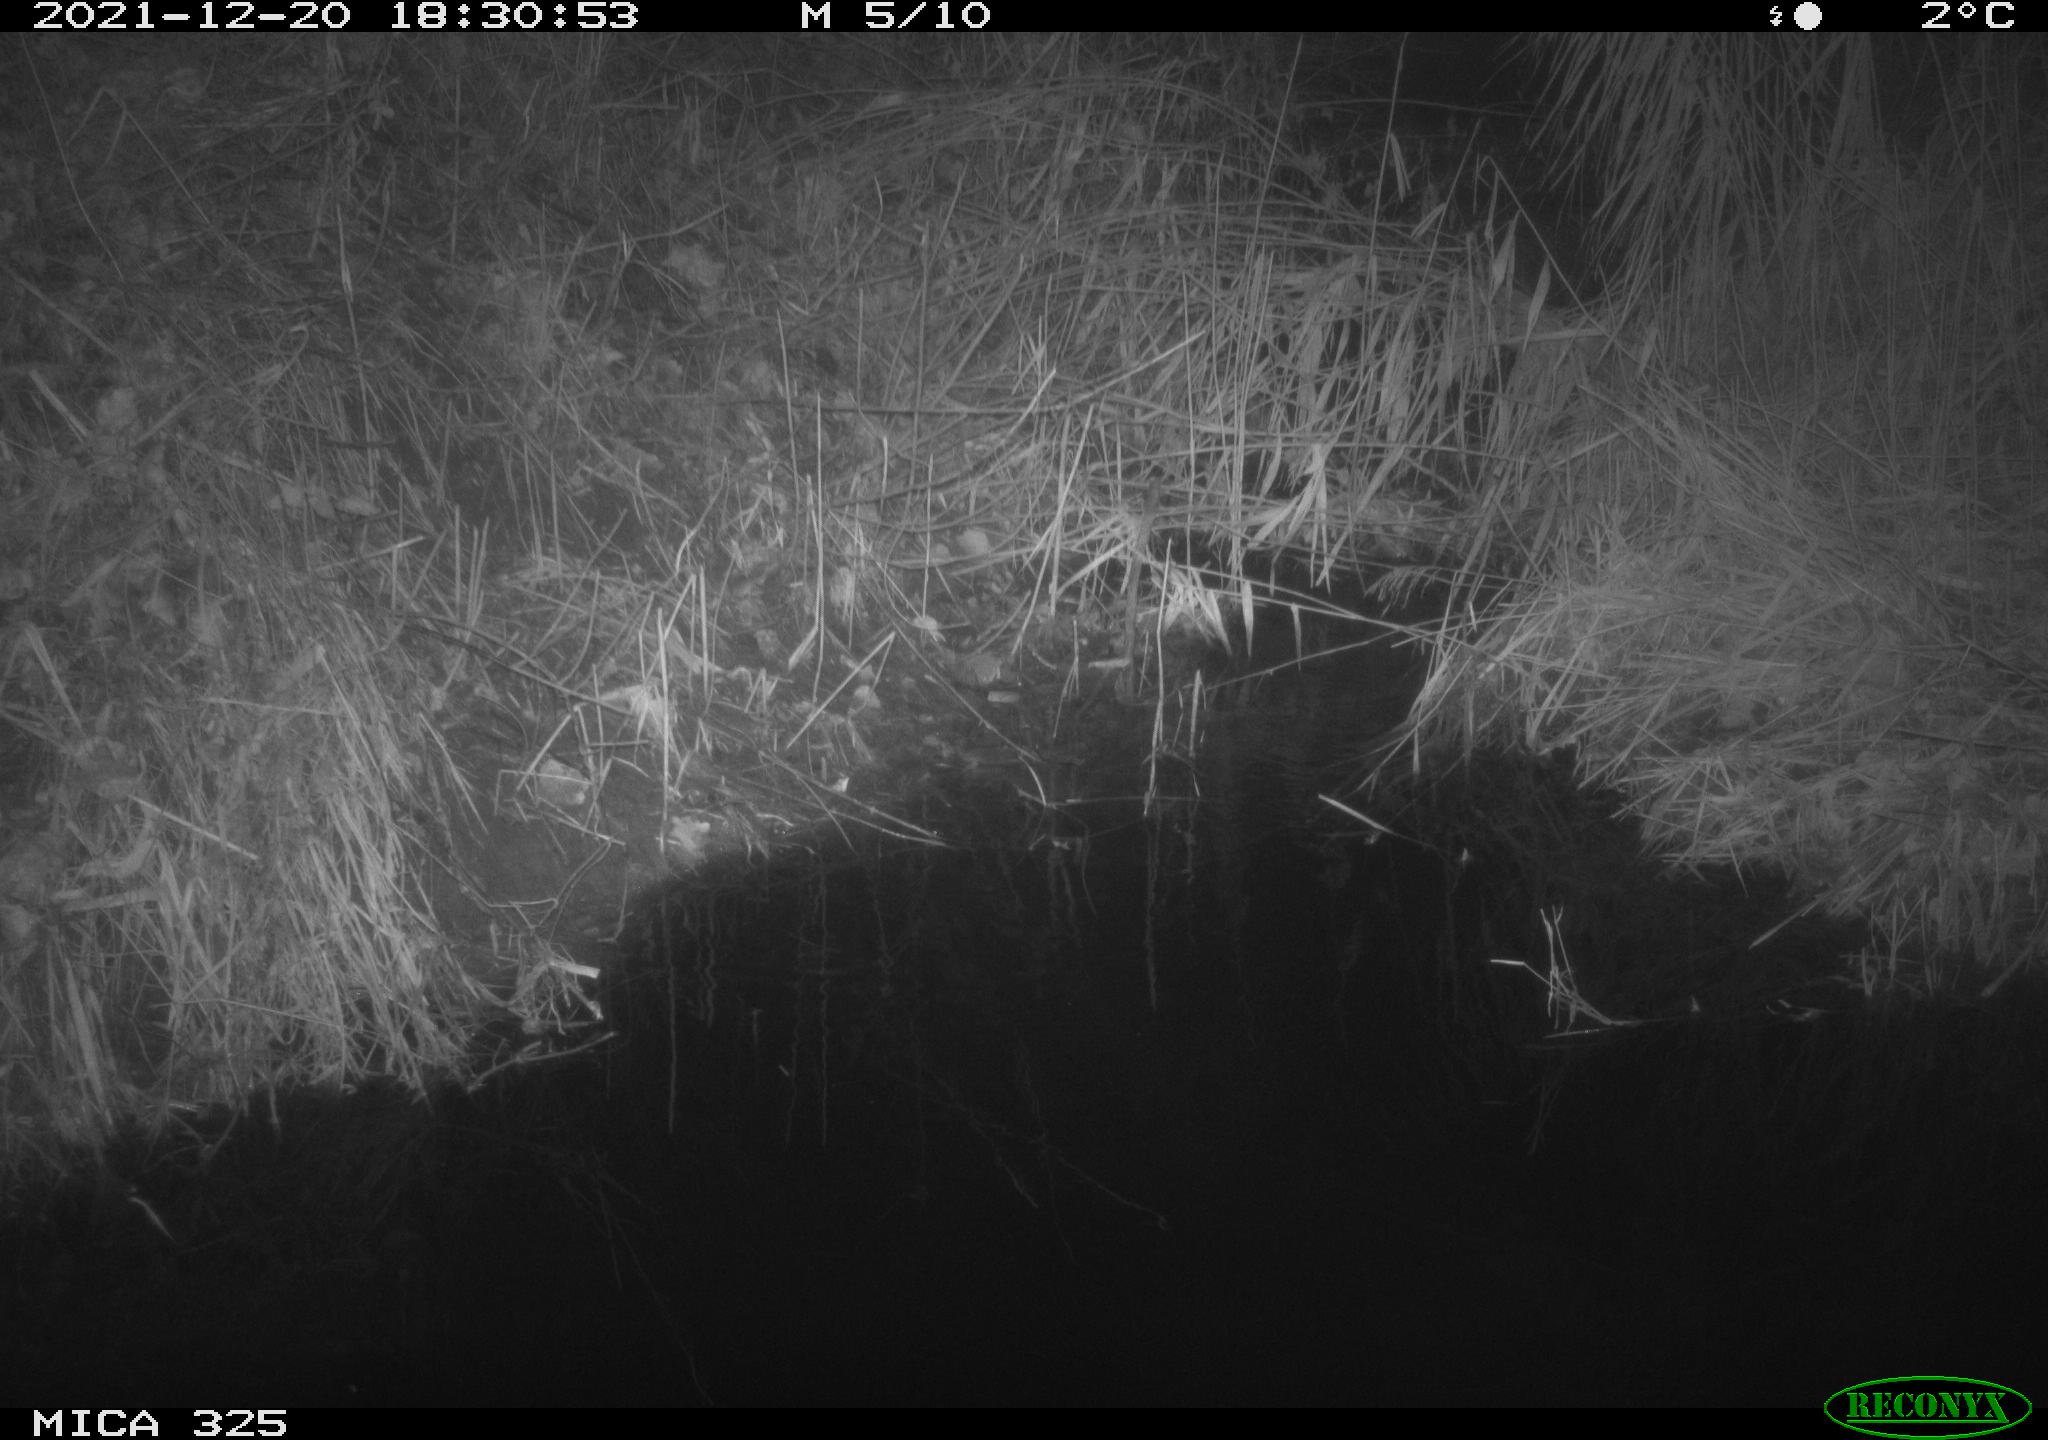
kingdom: Animalia
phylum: Chordata
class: Mammalia
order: Rodentia
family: Muridae
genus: Rattus
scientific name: Rattus norvegicus
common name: Brown rat
